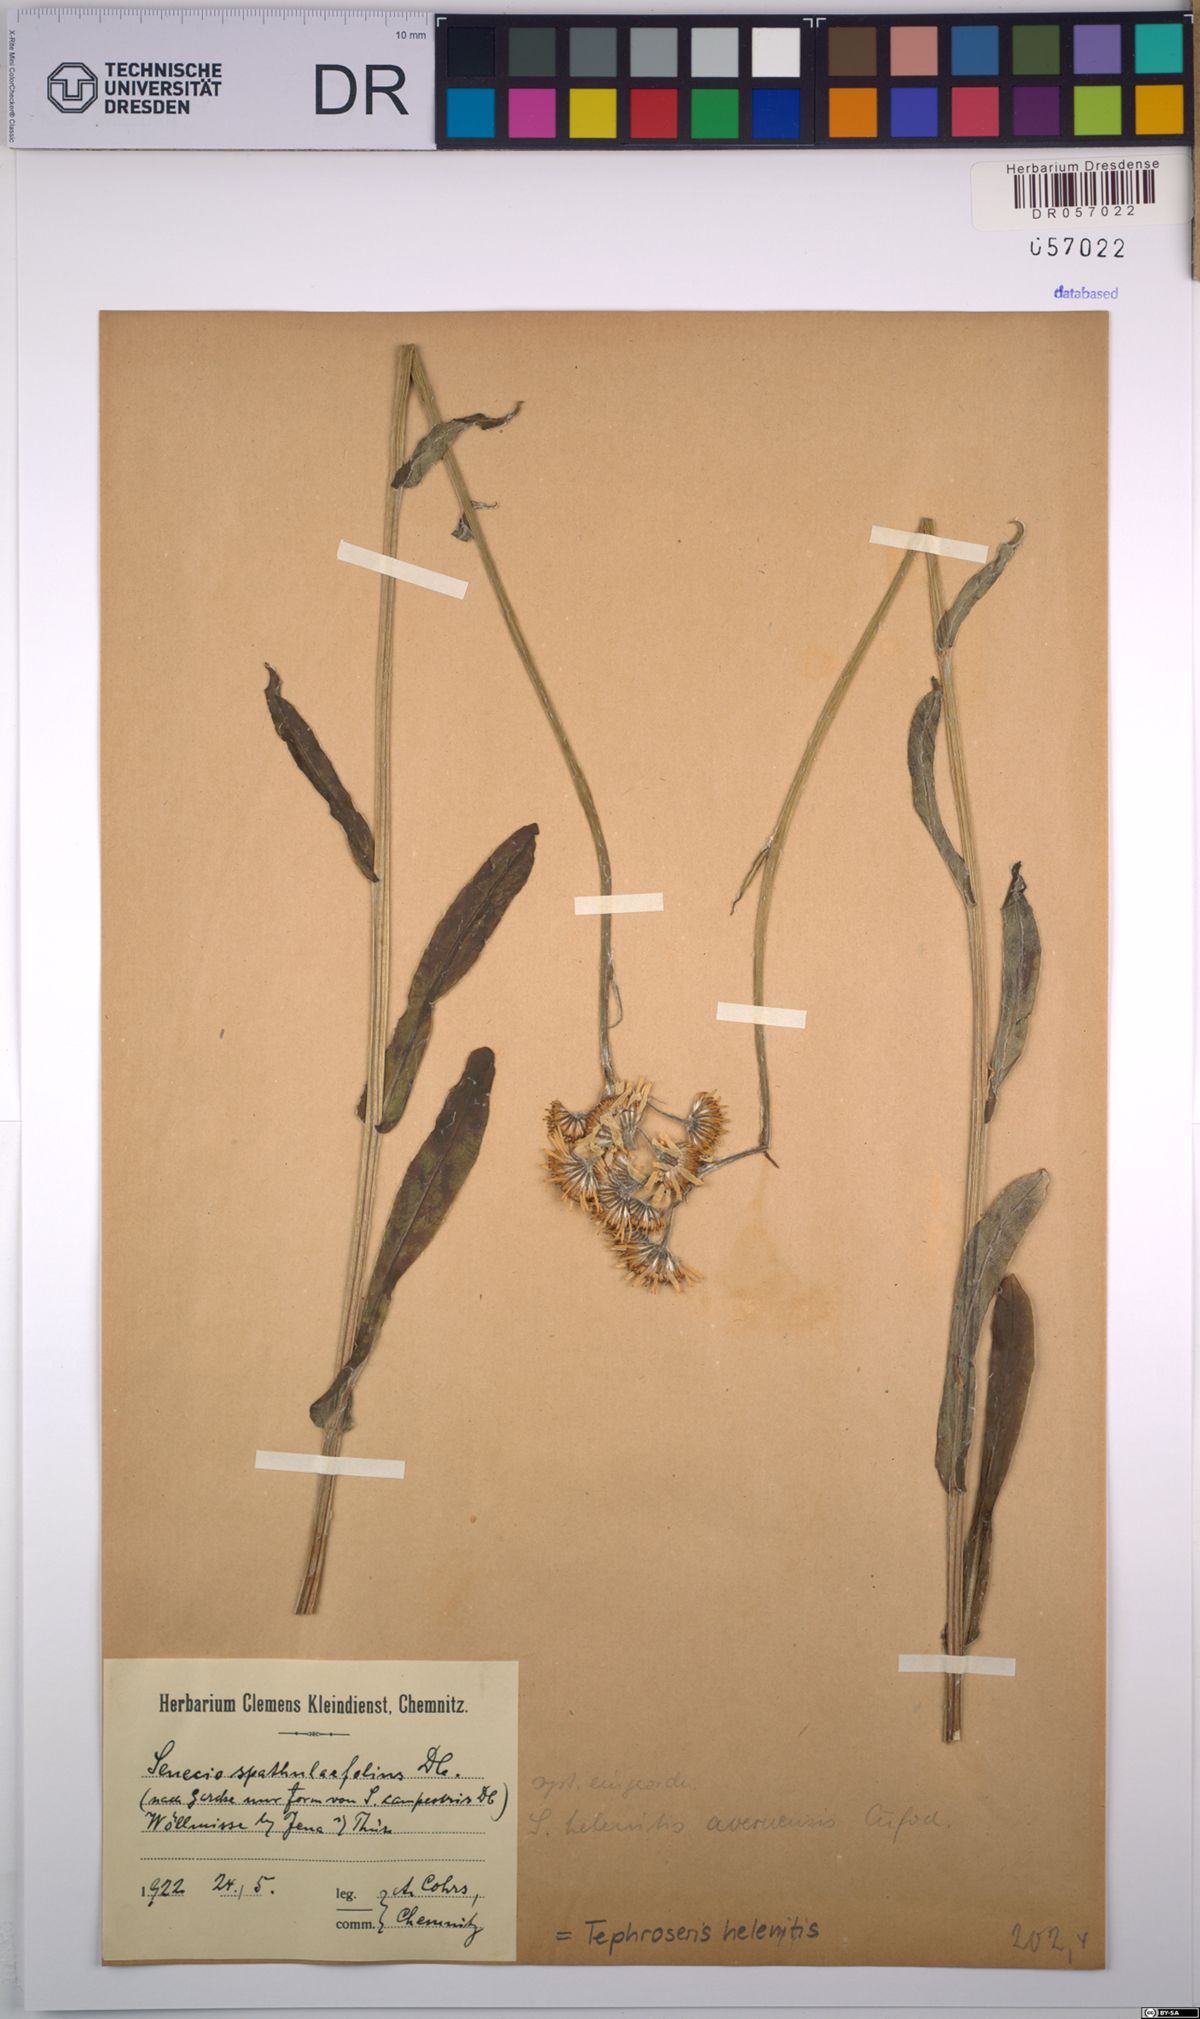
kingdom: Plantae
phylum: Tracheophyta
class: Magnoliopsida
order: Asterales
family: Asteraceae
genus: Tephroseris
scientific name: Tephroseris helenitis
